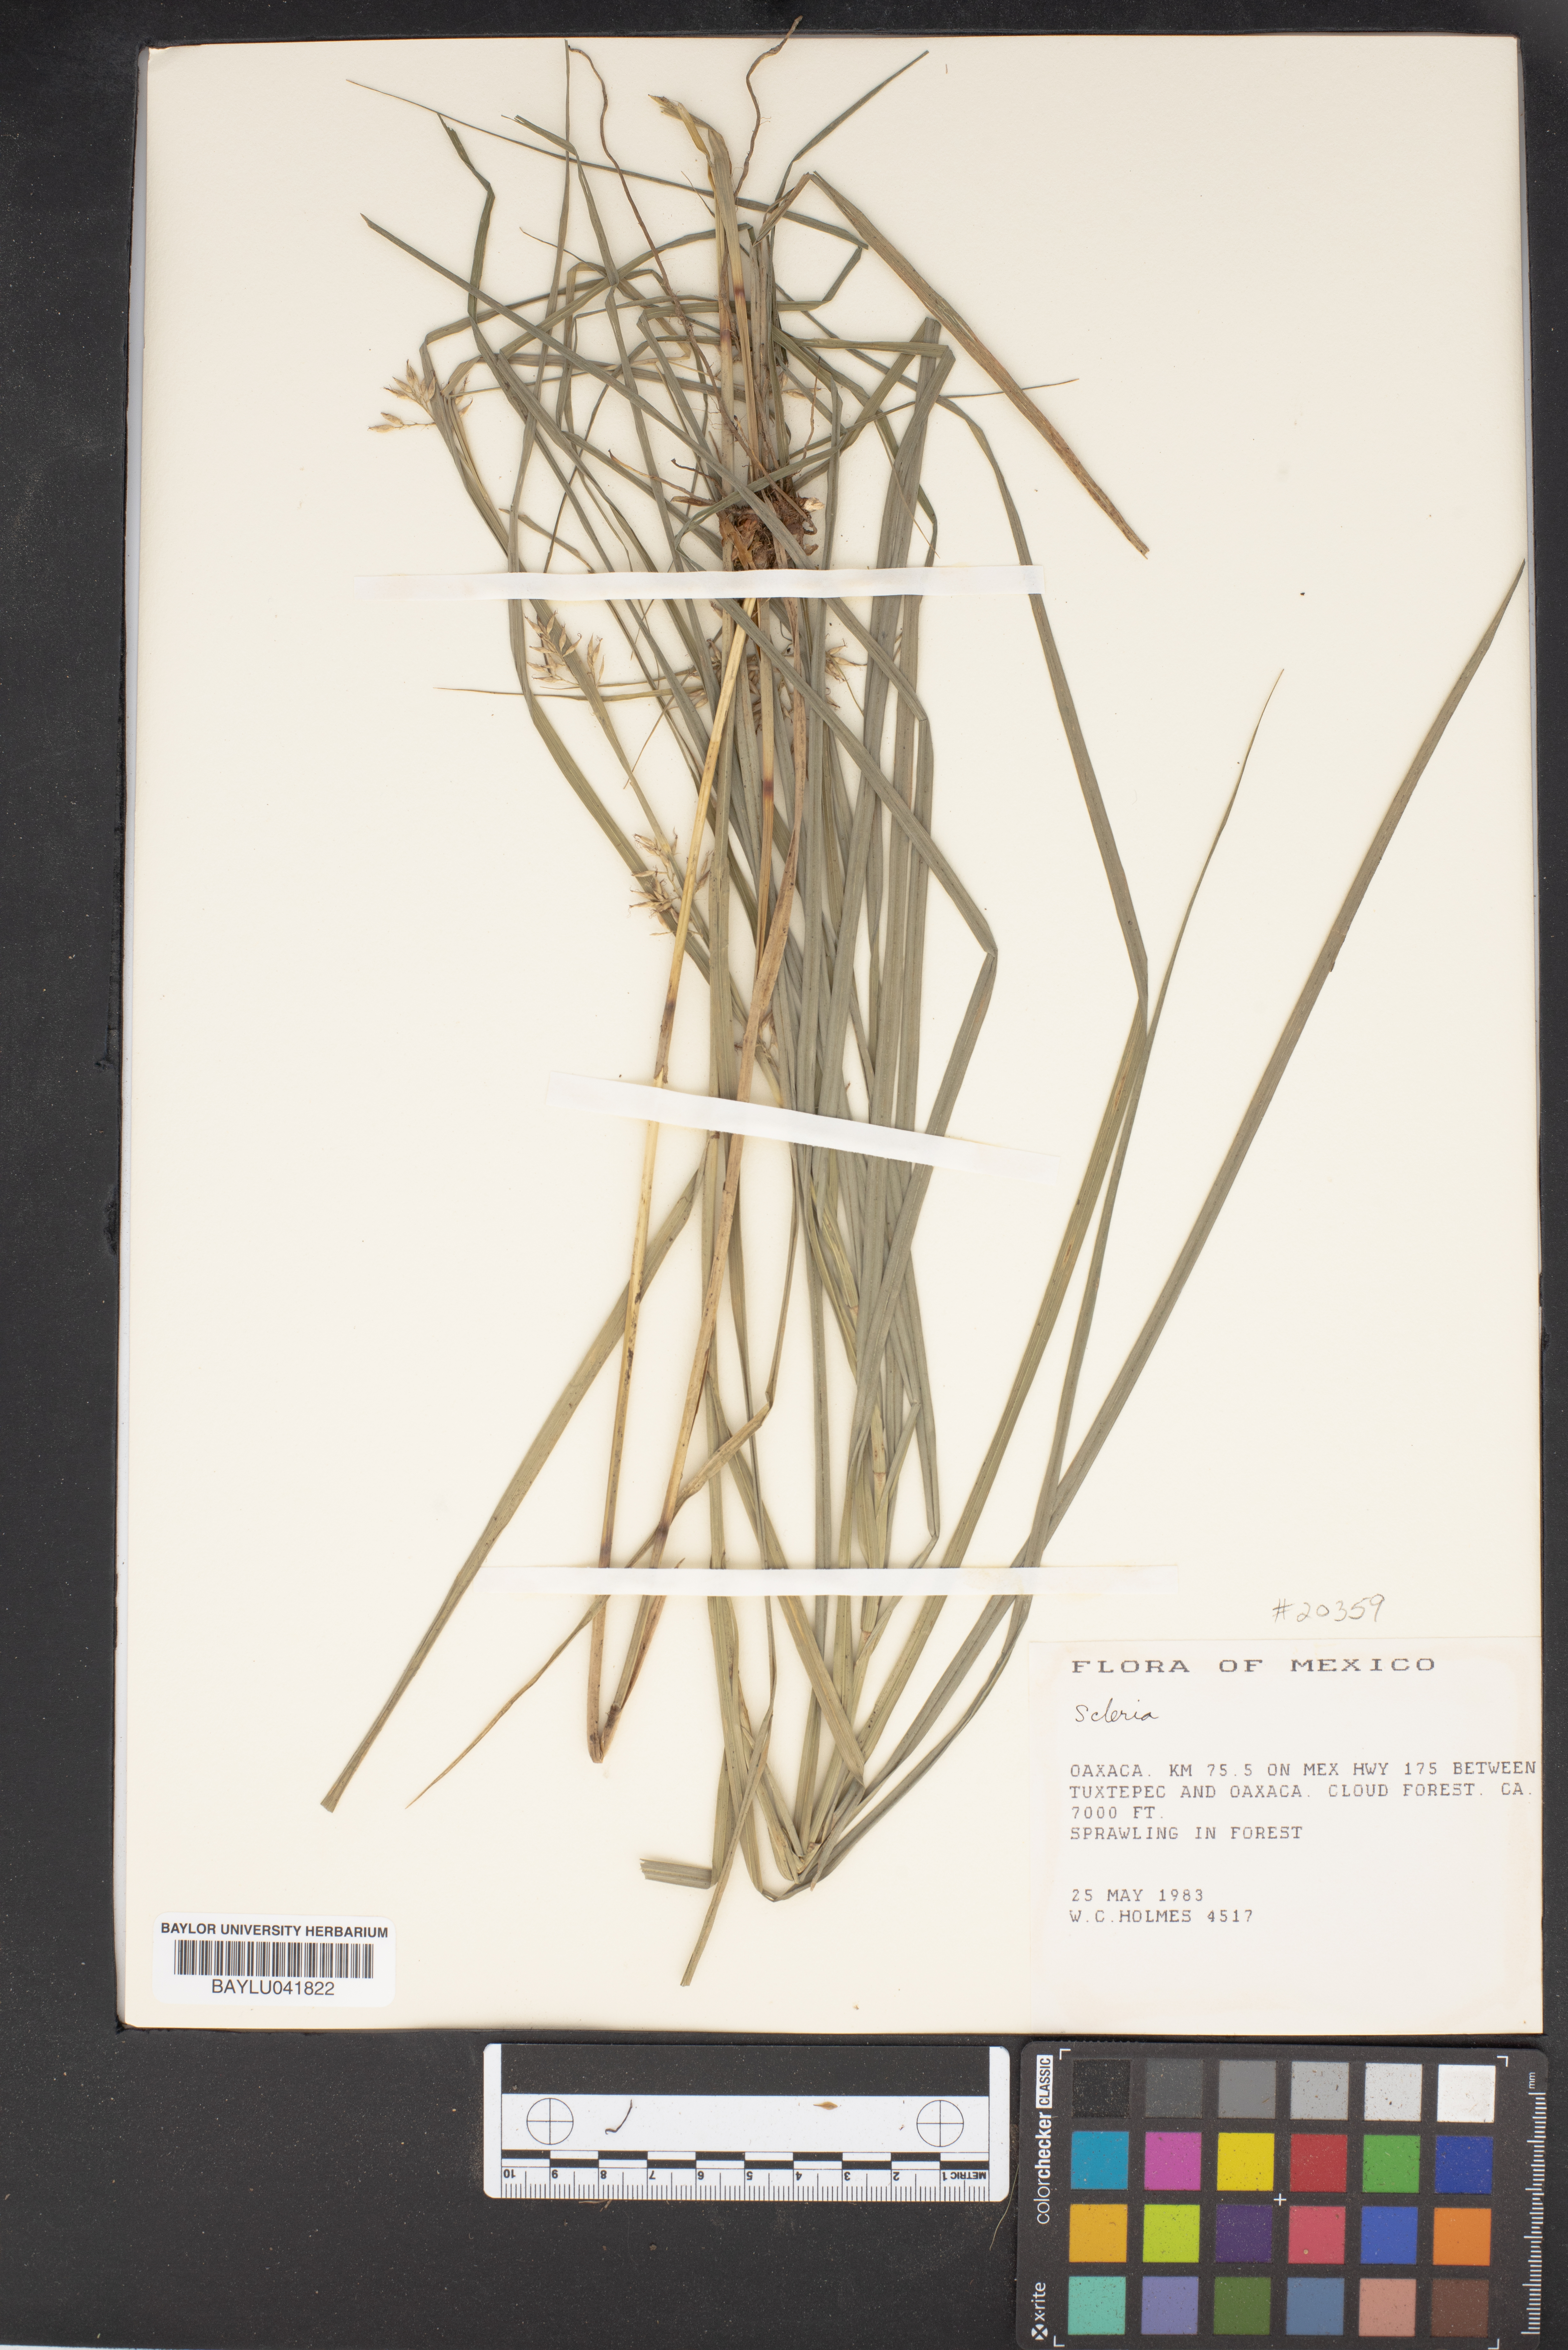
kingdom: Plantae
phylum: Tracheophyta
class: Liliopsida
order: Poales
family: Cyperaceae
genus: Scleria
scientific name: Scleria
